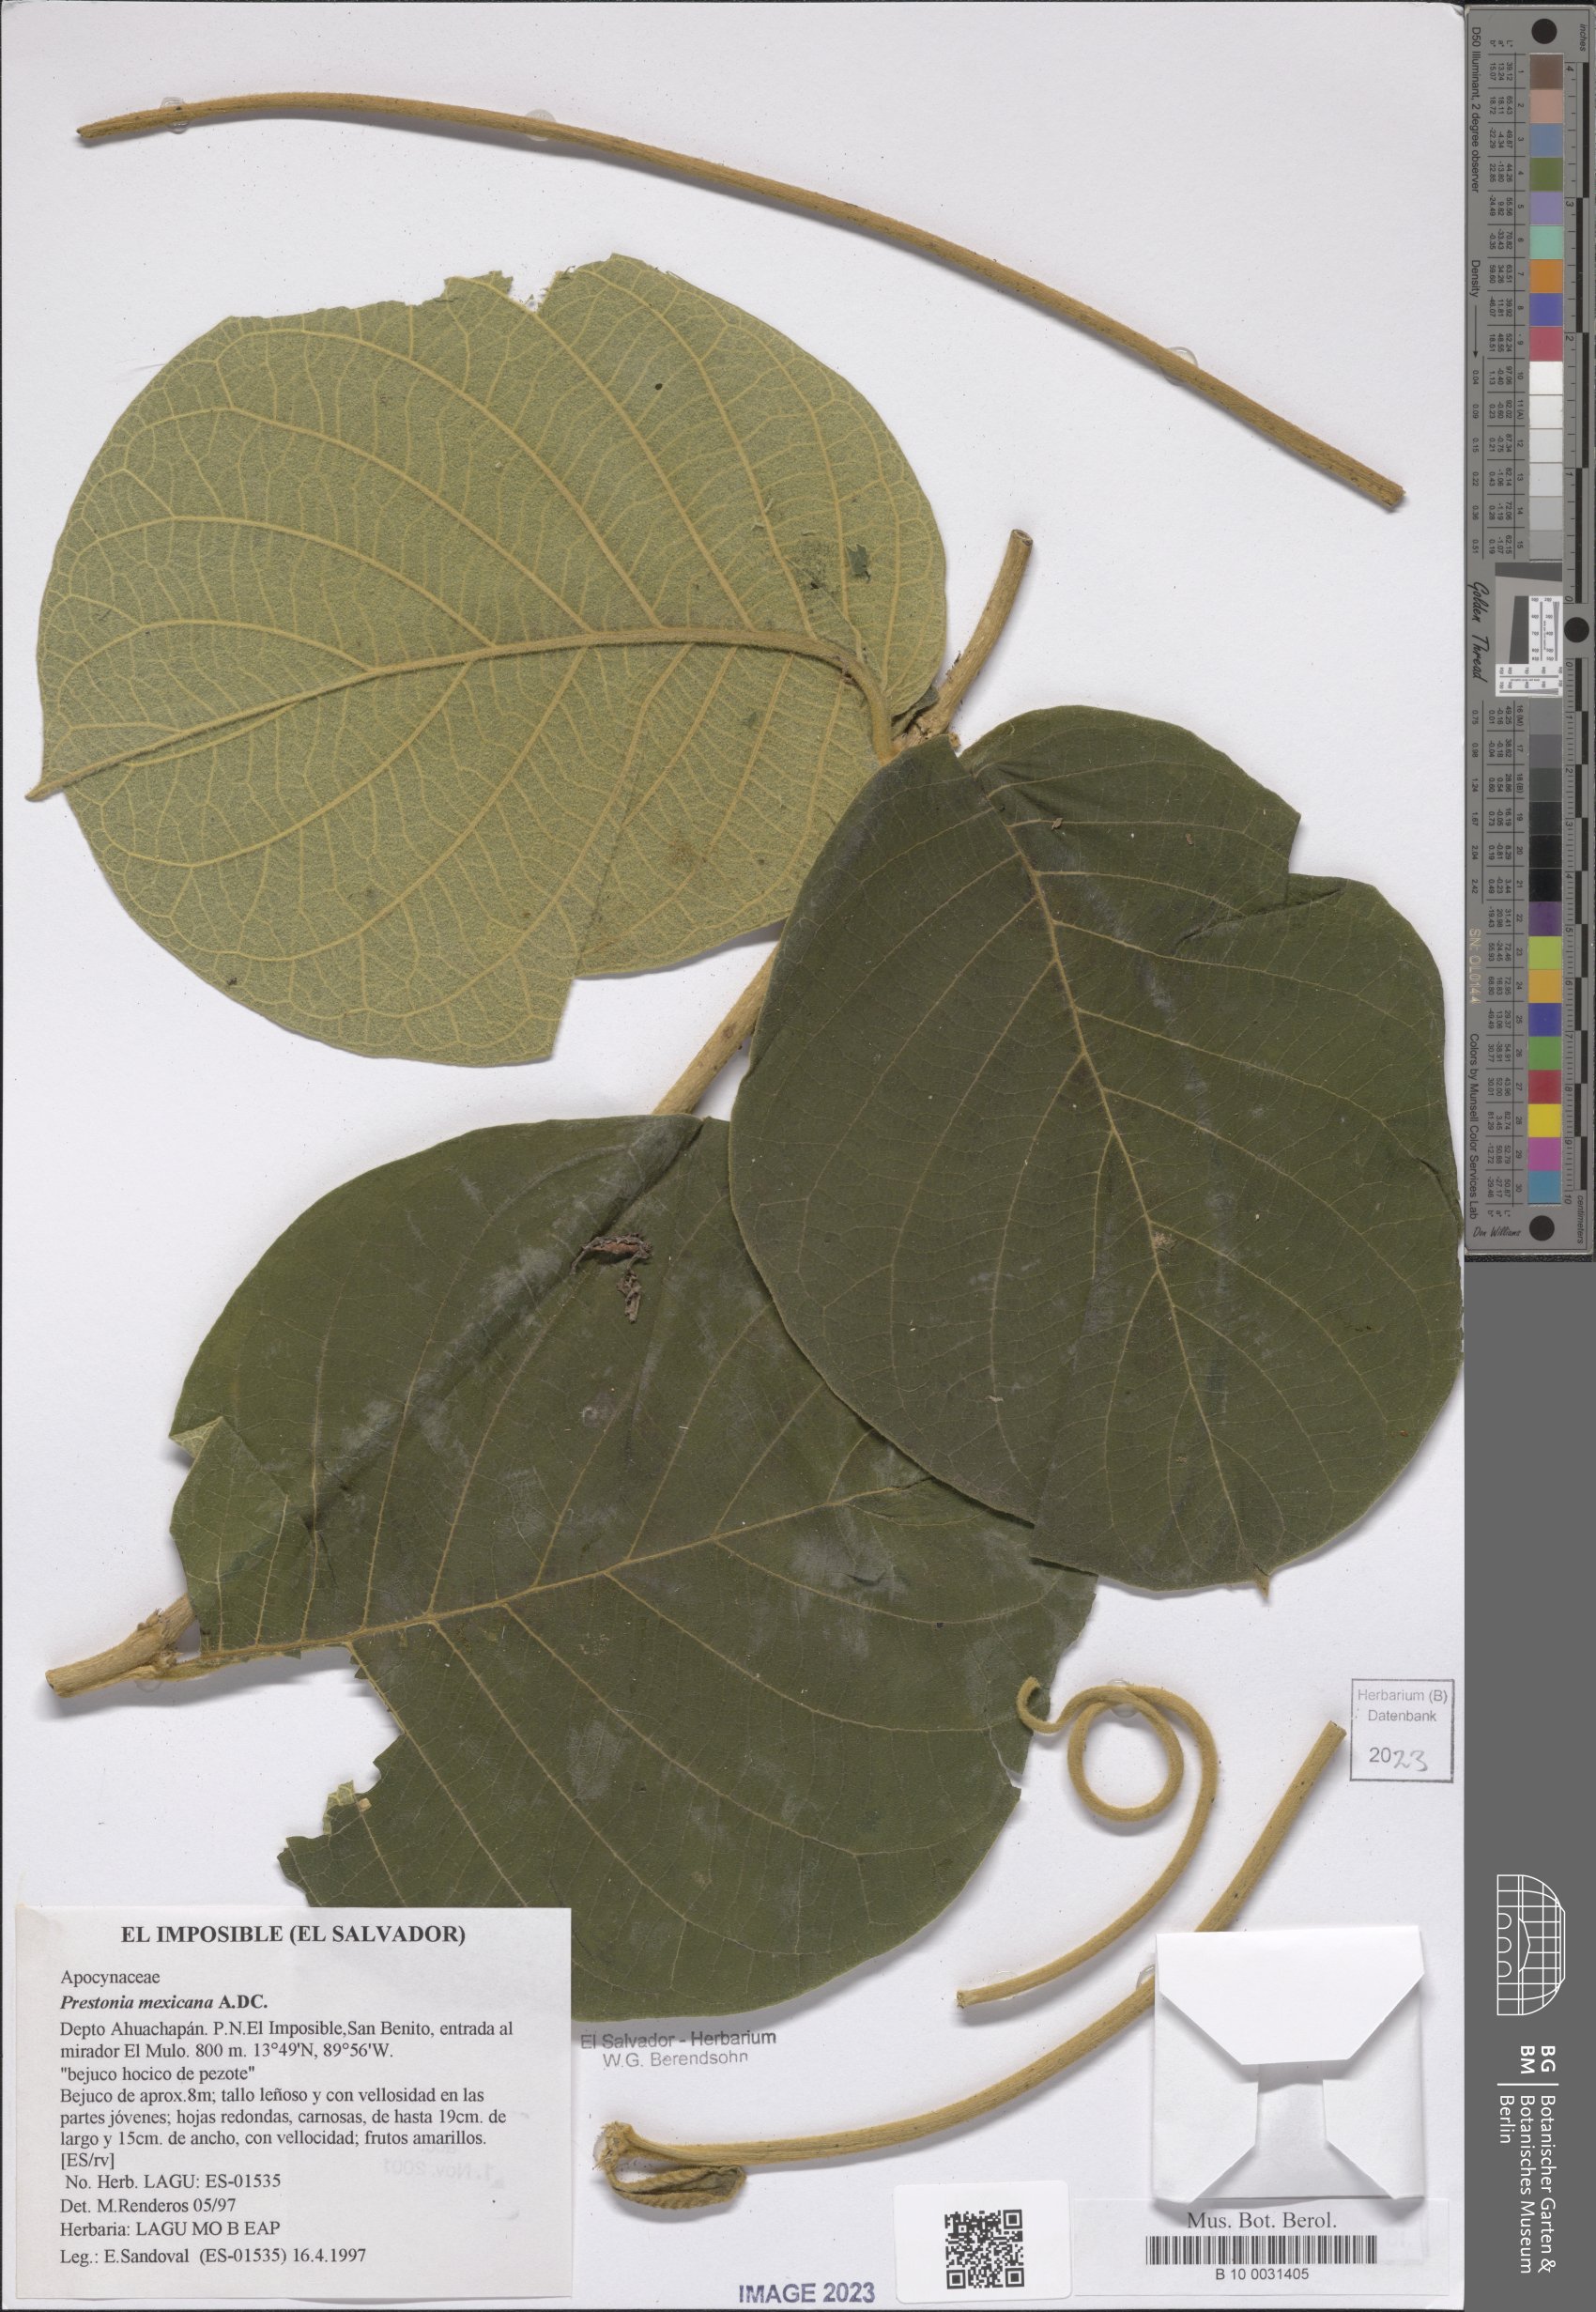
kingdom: Plantae
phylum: Tracheophyta
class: Magnoliopsida
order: Gentianales
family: Apocynaceae
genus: Prestonia
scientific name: Prestonia mexicana
